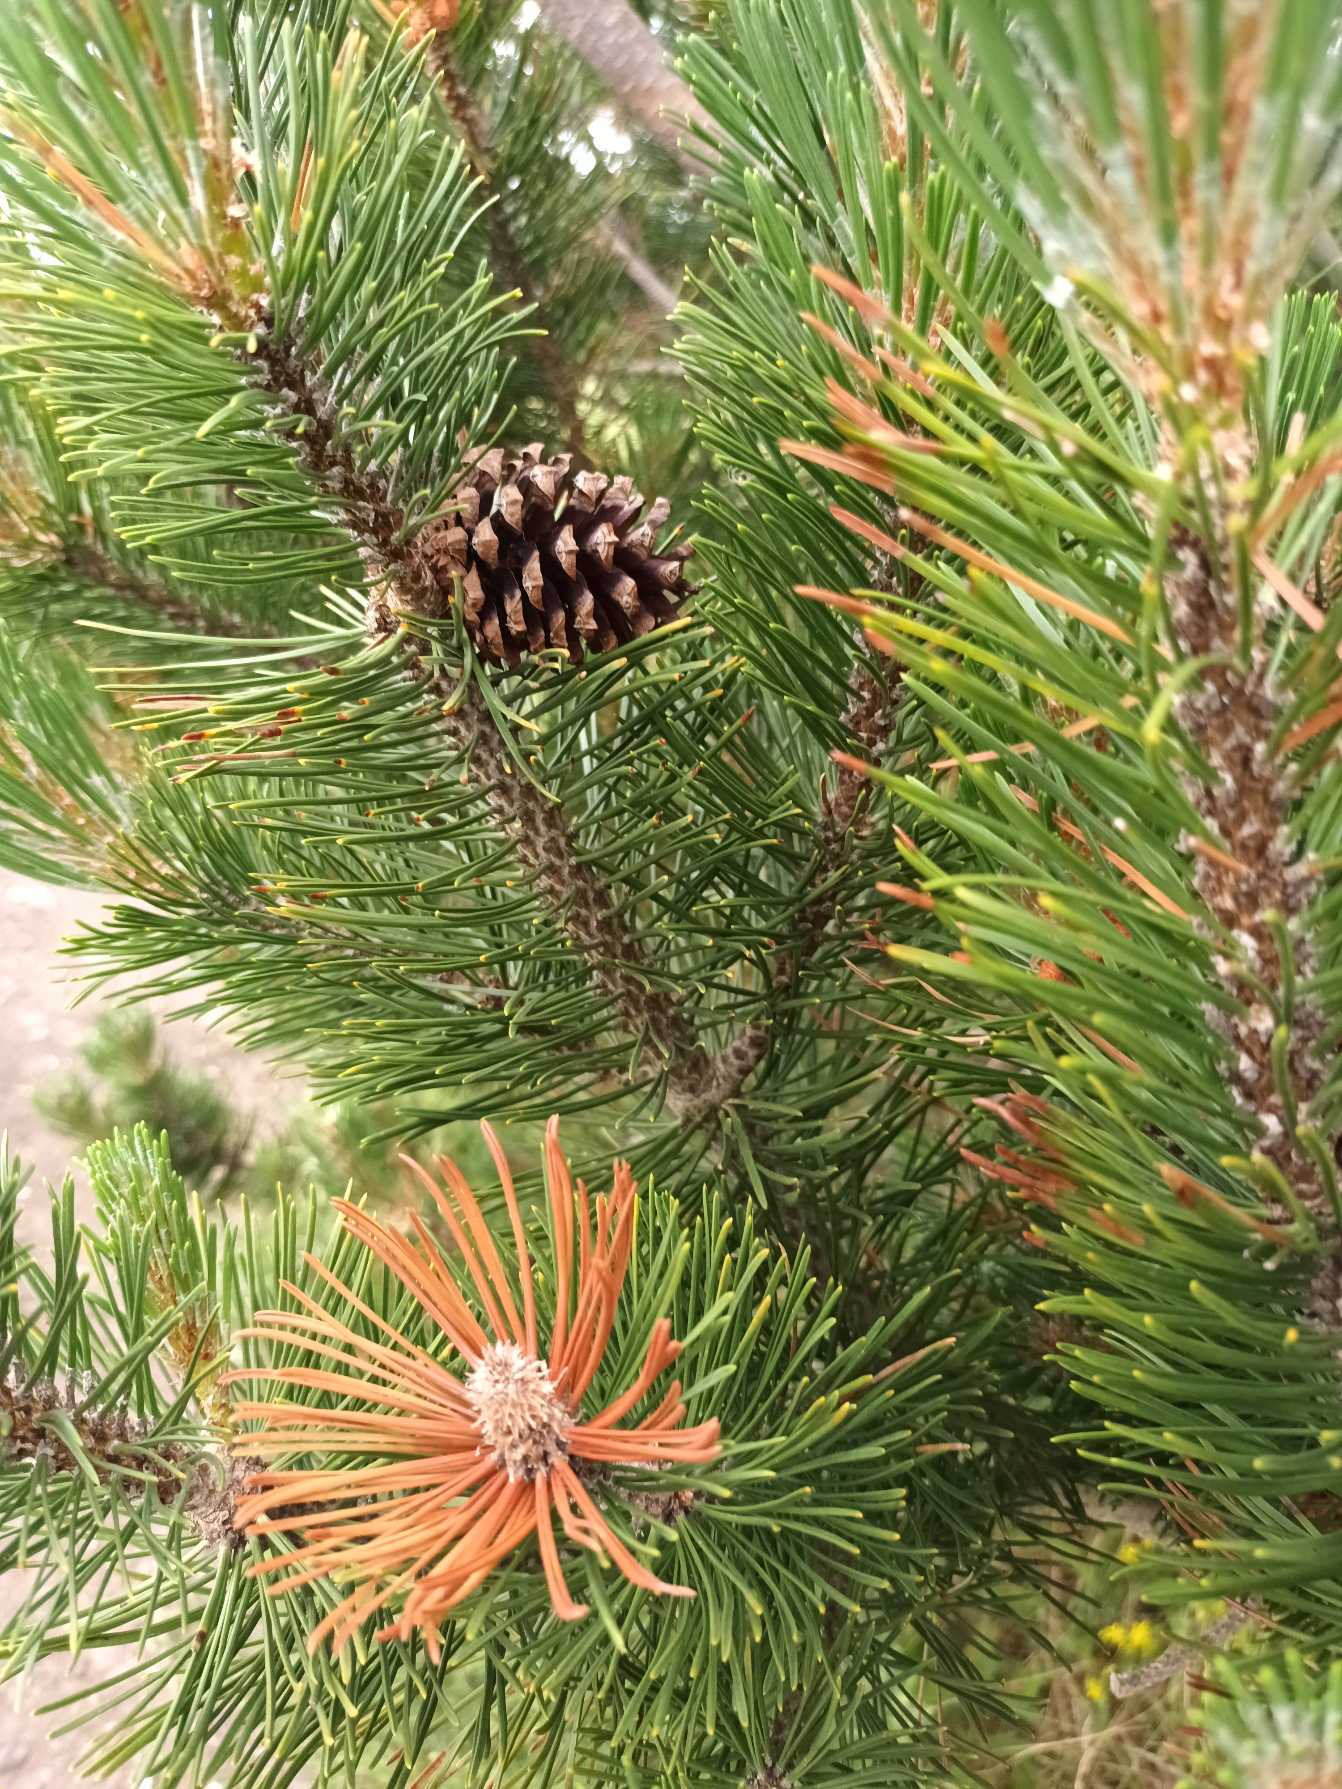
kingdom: Plantae
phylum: Tracheophyta
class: Pinopsida
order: Pinales
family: Pinaceae
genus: Pinus
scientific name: Pinus mugo
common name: Bjerg-fyr
